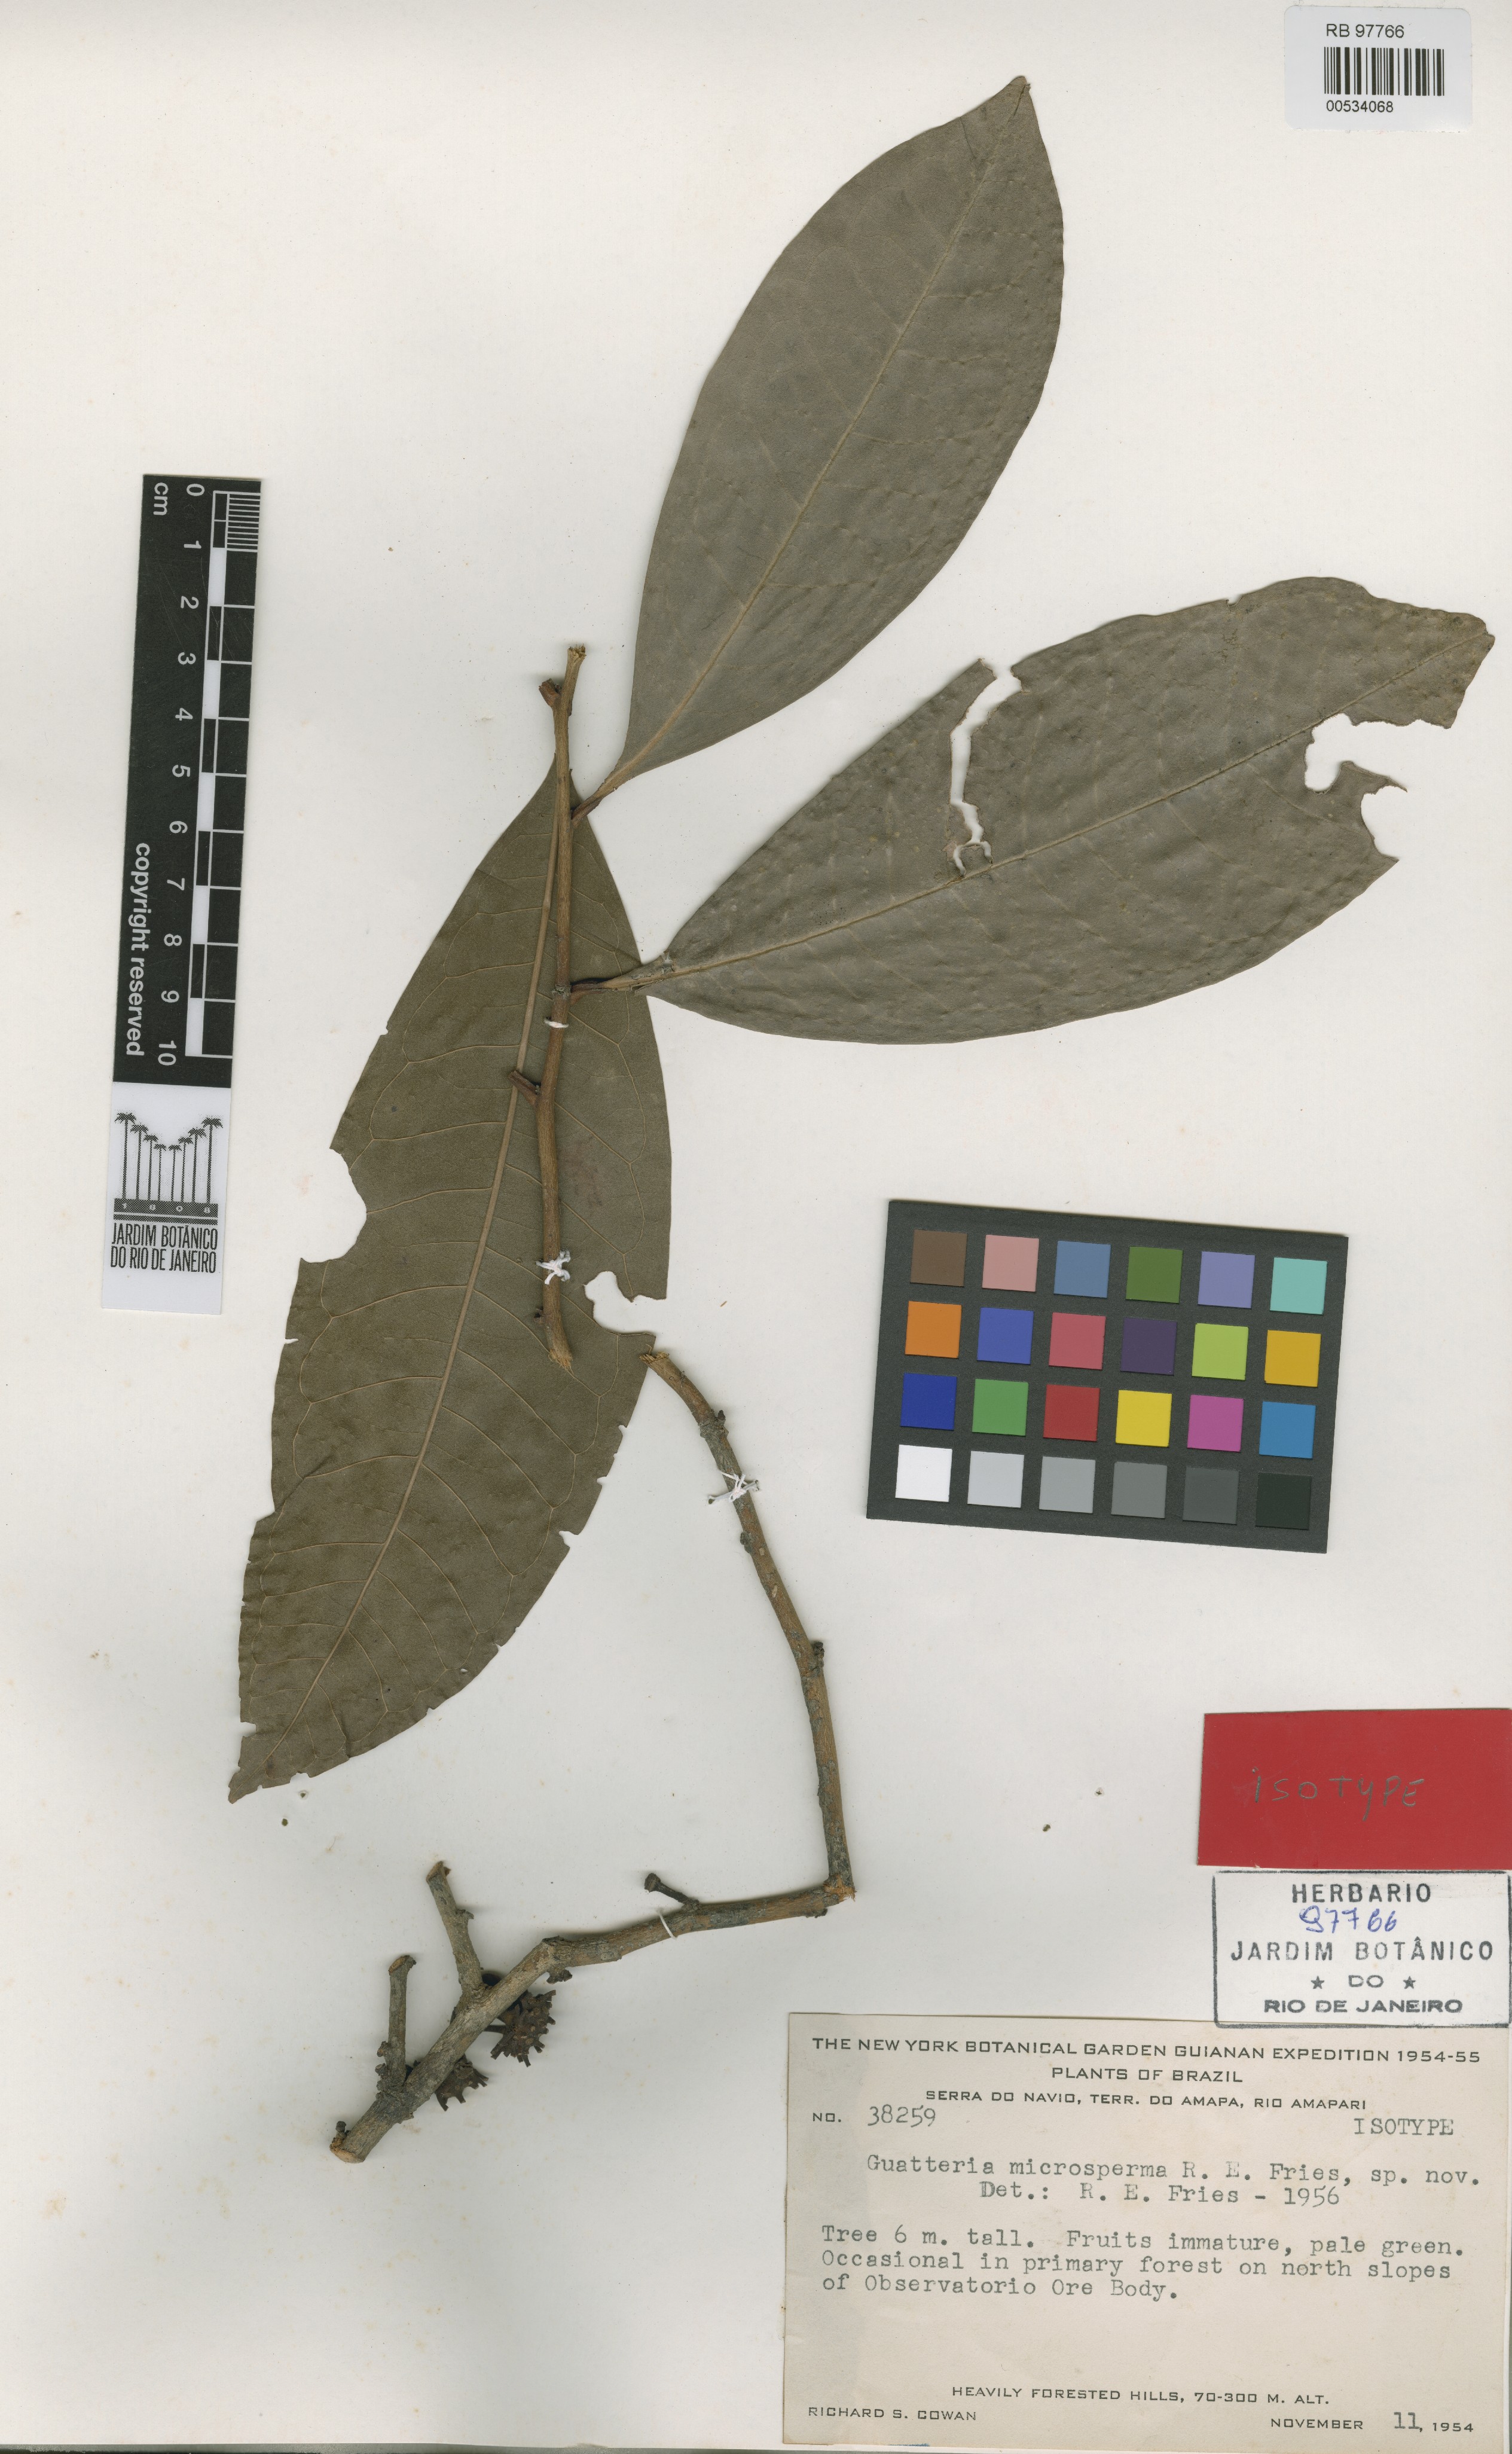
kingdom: Plantae
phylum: Tracheophyta
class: Magnoliopsida
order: Magnoliales
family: Annonaceae
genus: Guatteria
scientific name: Guatteria wachenheimii
